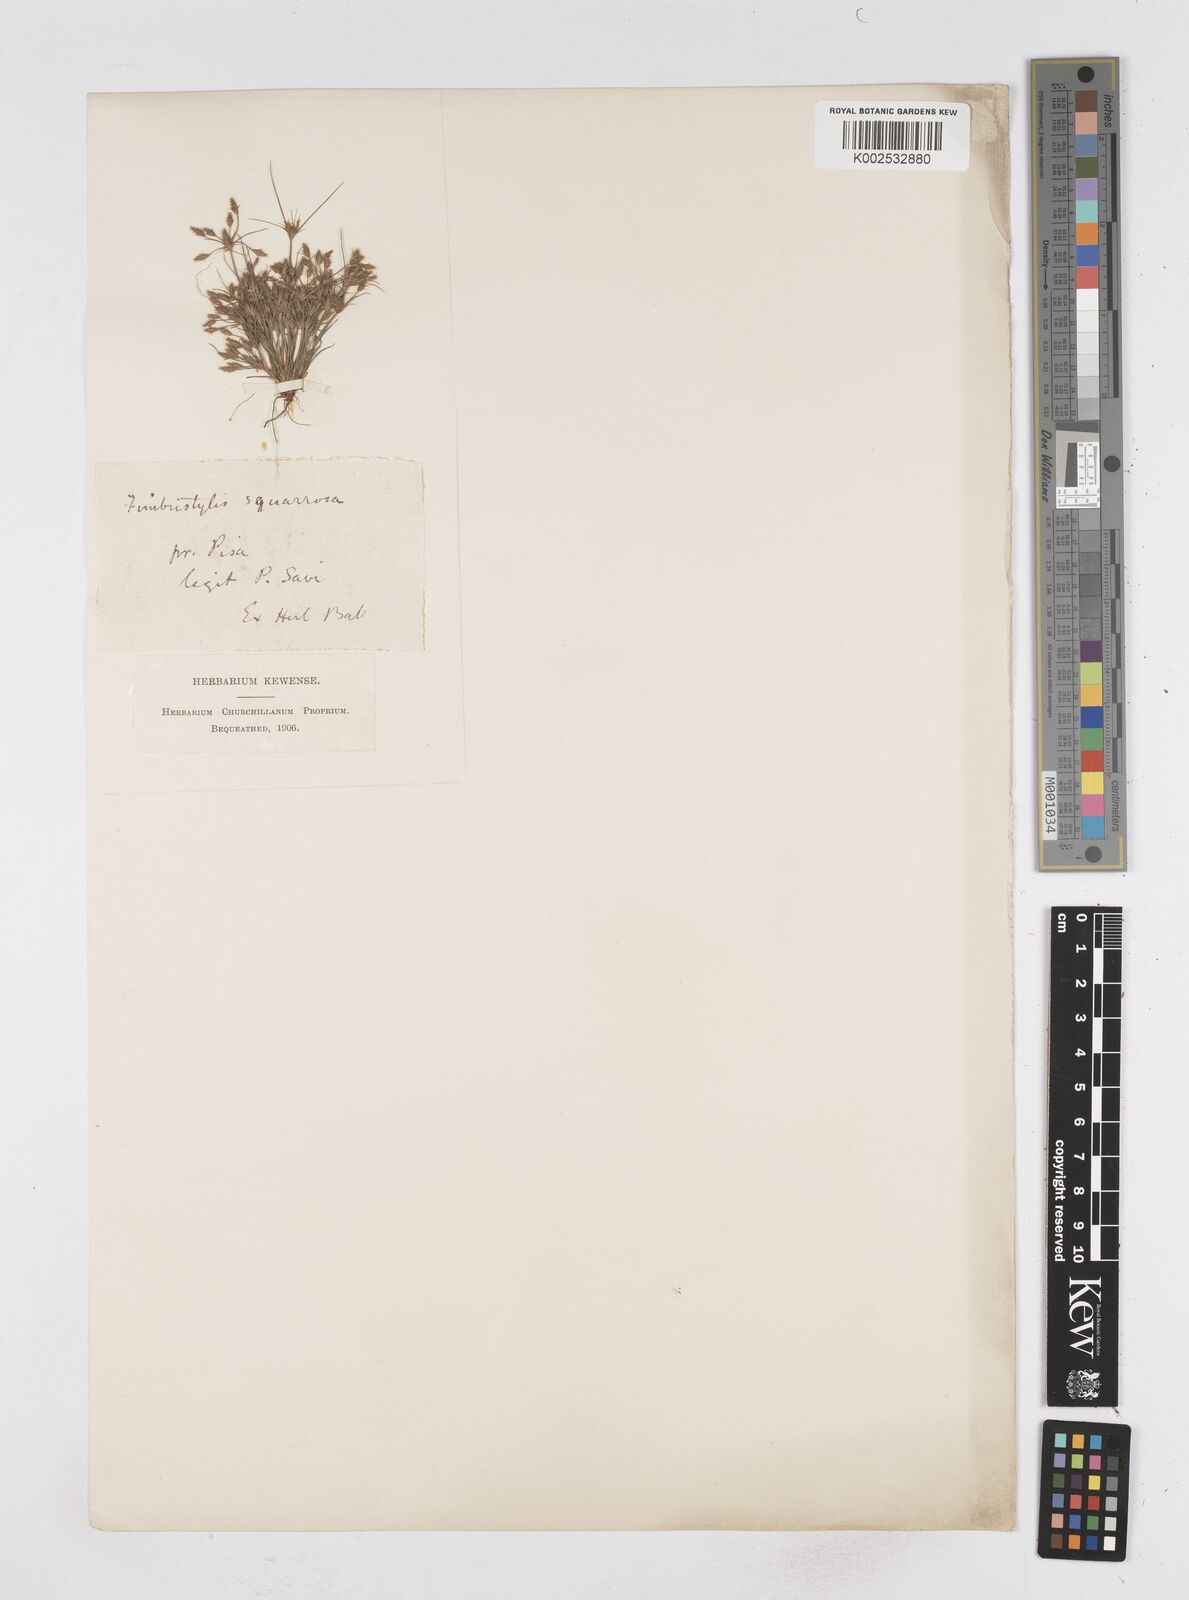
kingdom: Plantae
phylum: Tracheophyta
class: Liliopsida
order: Poales
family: Cyperaceae
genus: Fimbristylis
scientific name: Fimbristylis squarrosa
